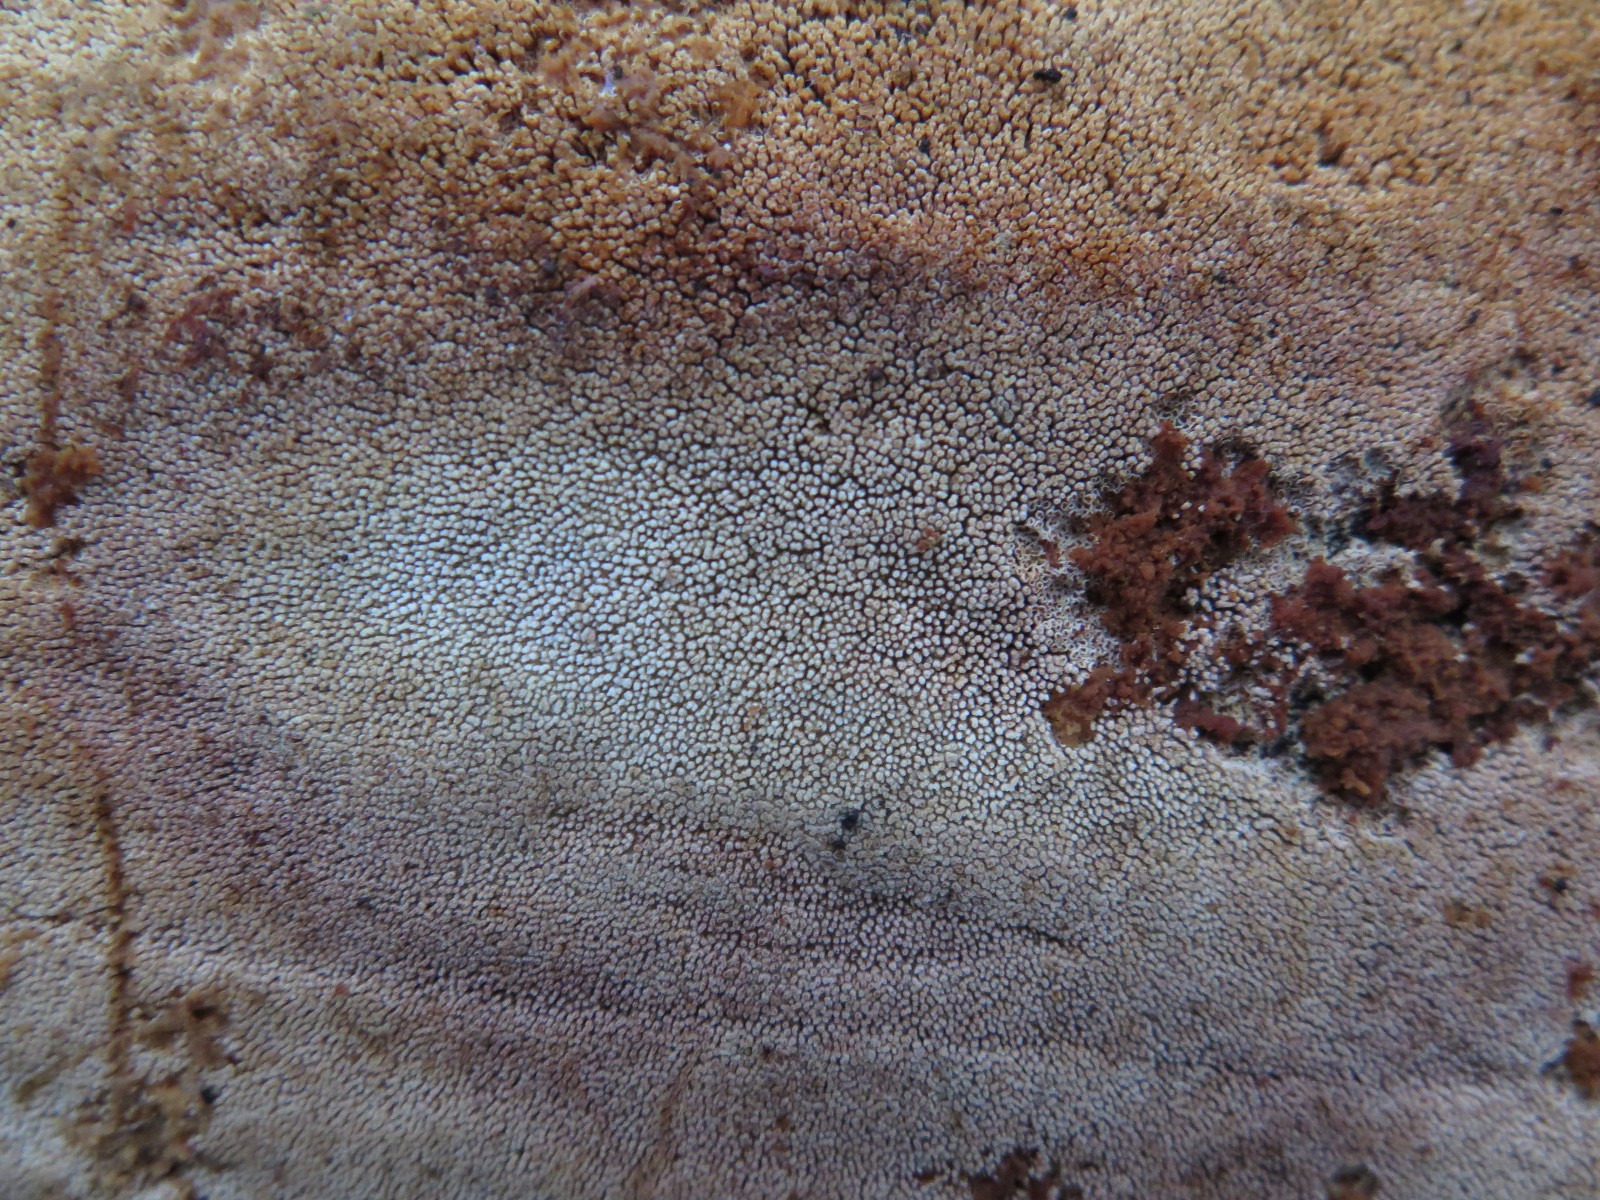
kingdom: Fungi
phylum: Basidiomycota
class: Agaricomycetes
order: Corticiales
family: Corticiaceae
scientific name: Corticiaceae
